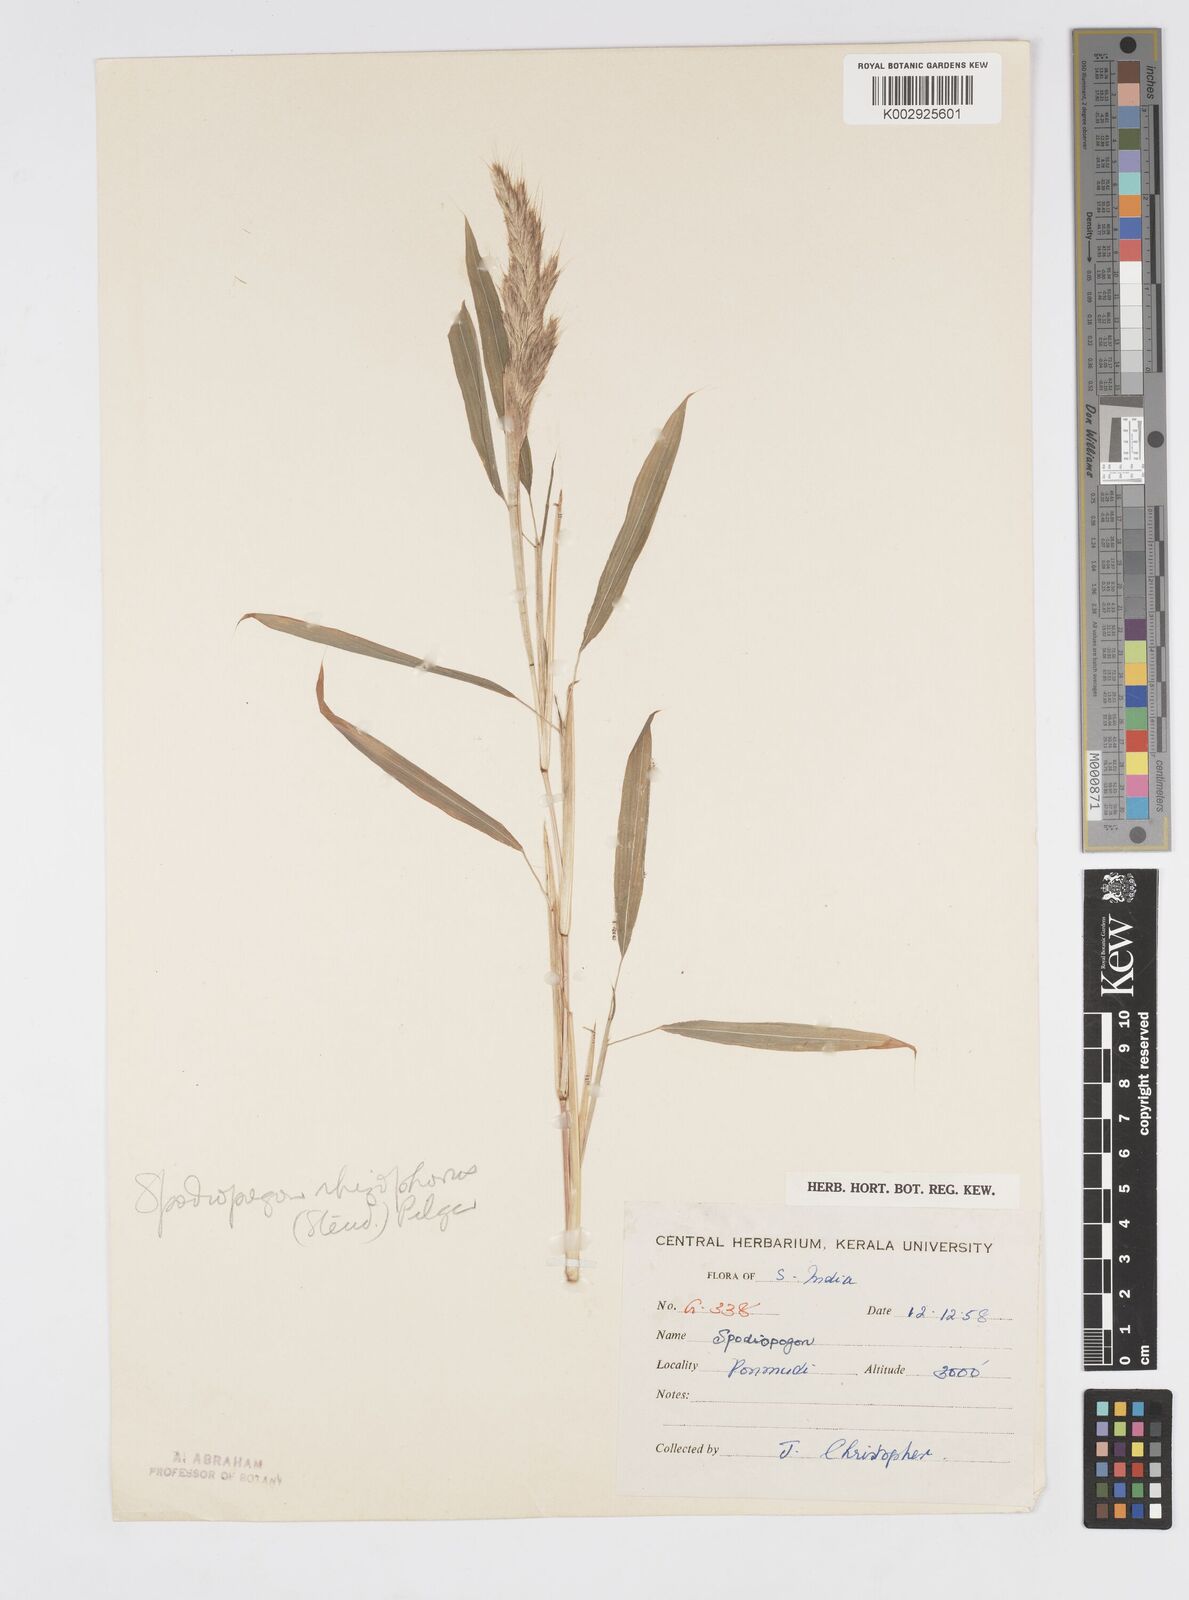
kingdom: Plantae
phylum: Tracheophyta
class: Liliopsida
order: Poales
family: Poaceae
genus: Spodiopogon
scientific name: Spodiopogon rhizophorus
